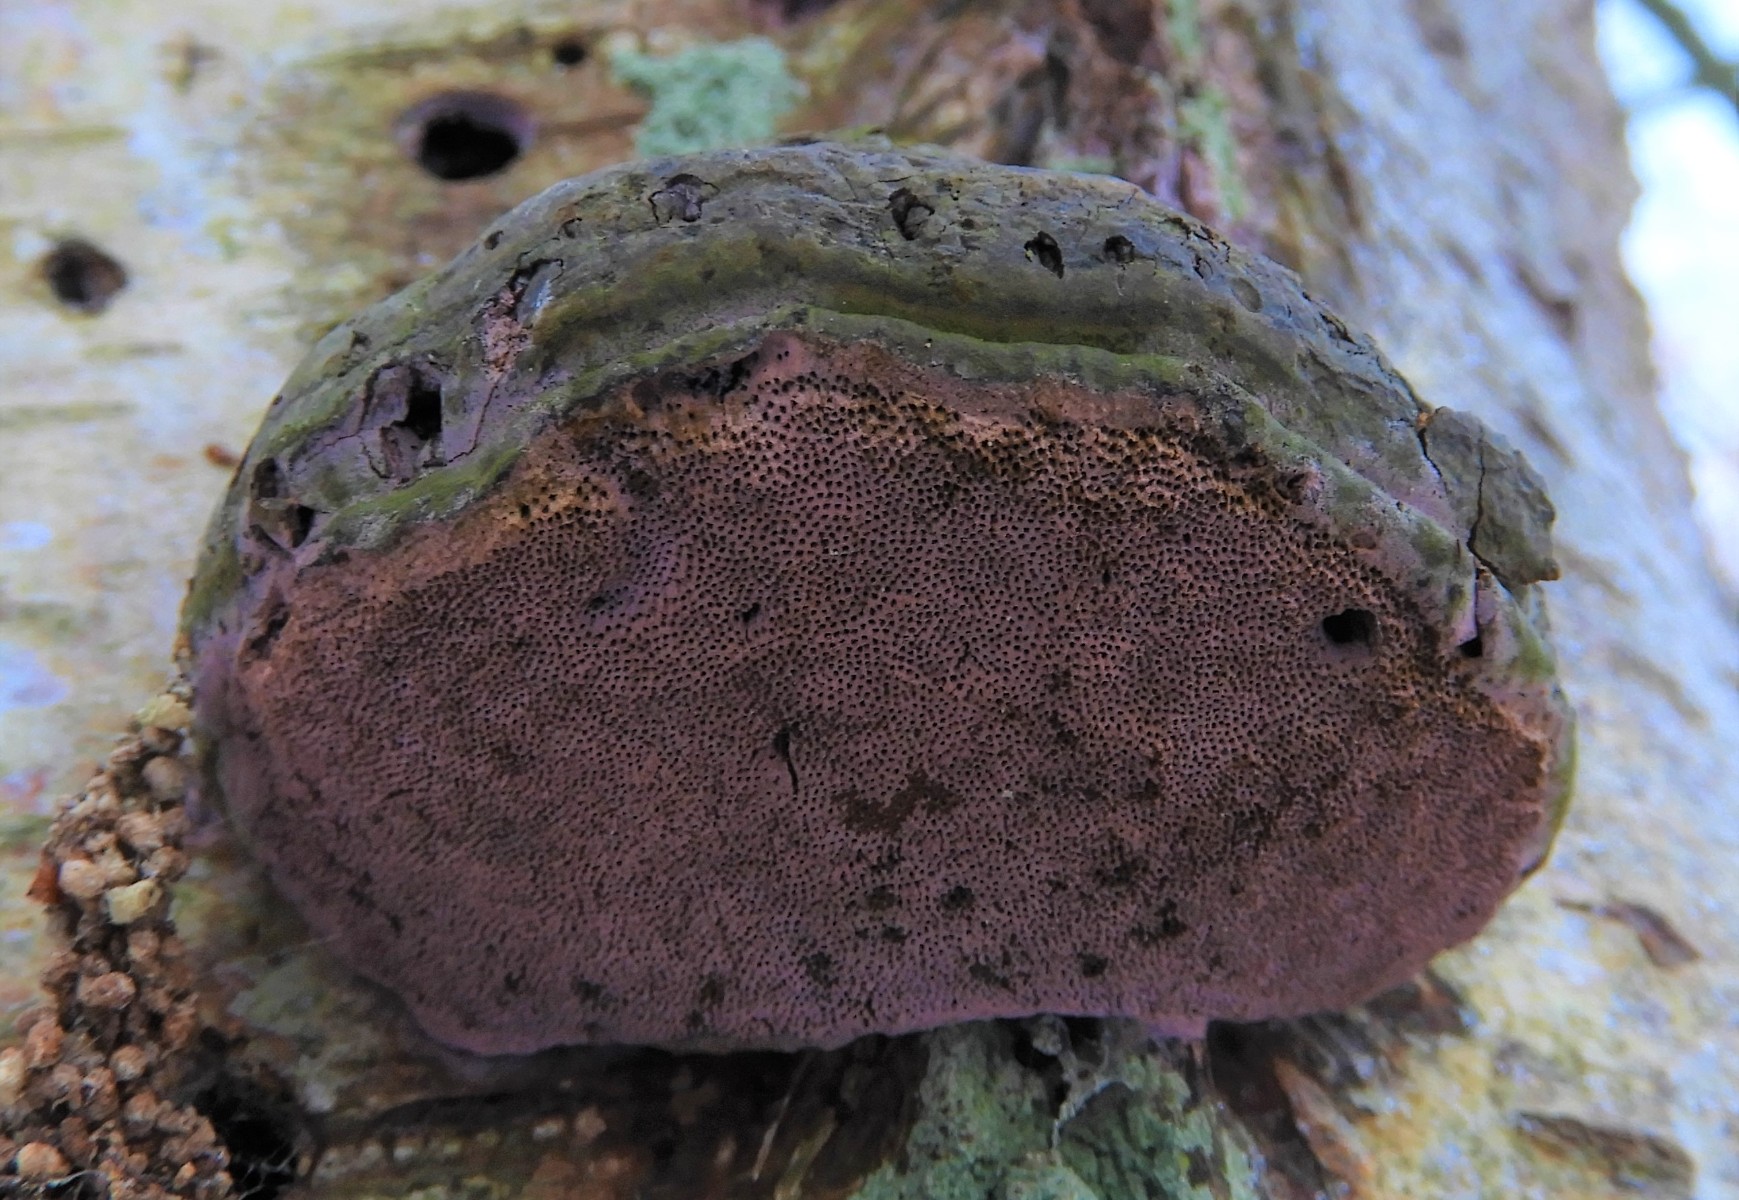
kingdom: Fungi
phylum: Basidiomycota
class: Agaricomycetes
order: Cantharellales
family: Tulasnellaceae
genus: Tulasnella
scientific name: Tulasnella violea
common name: violet ballonhinde
